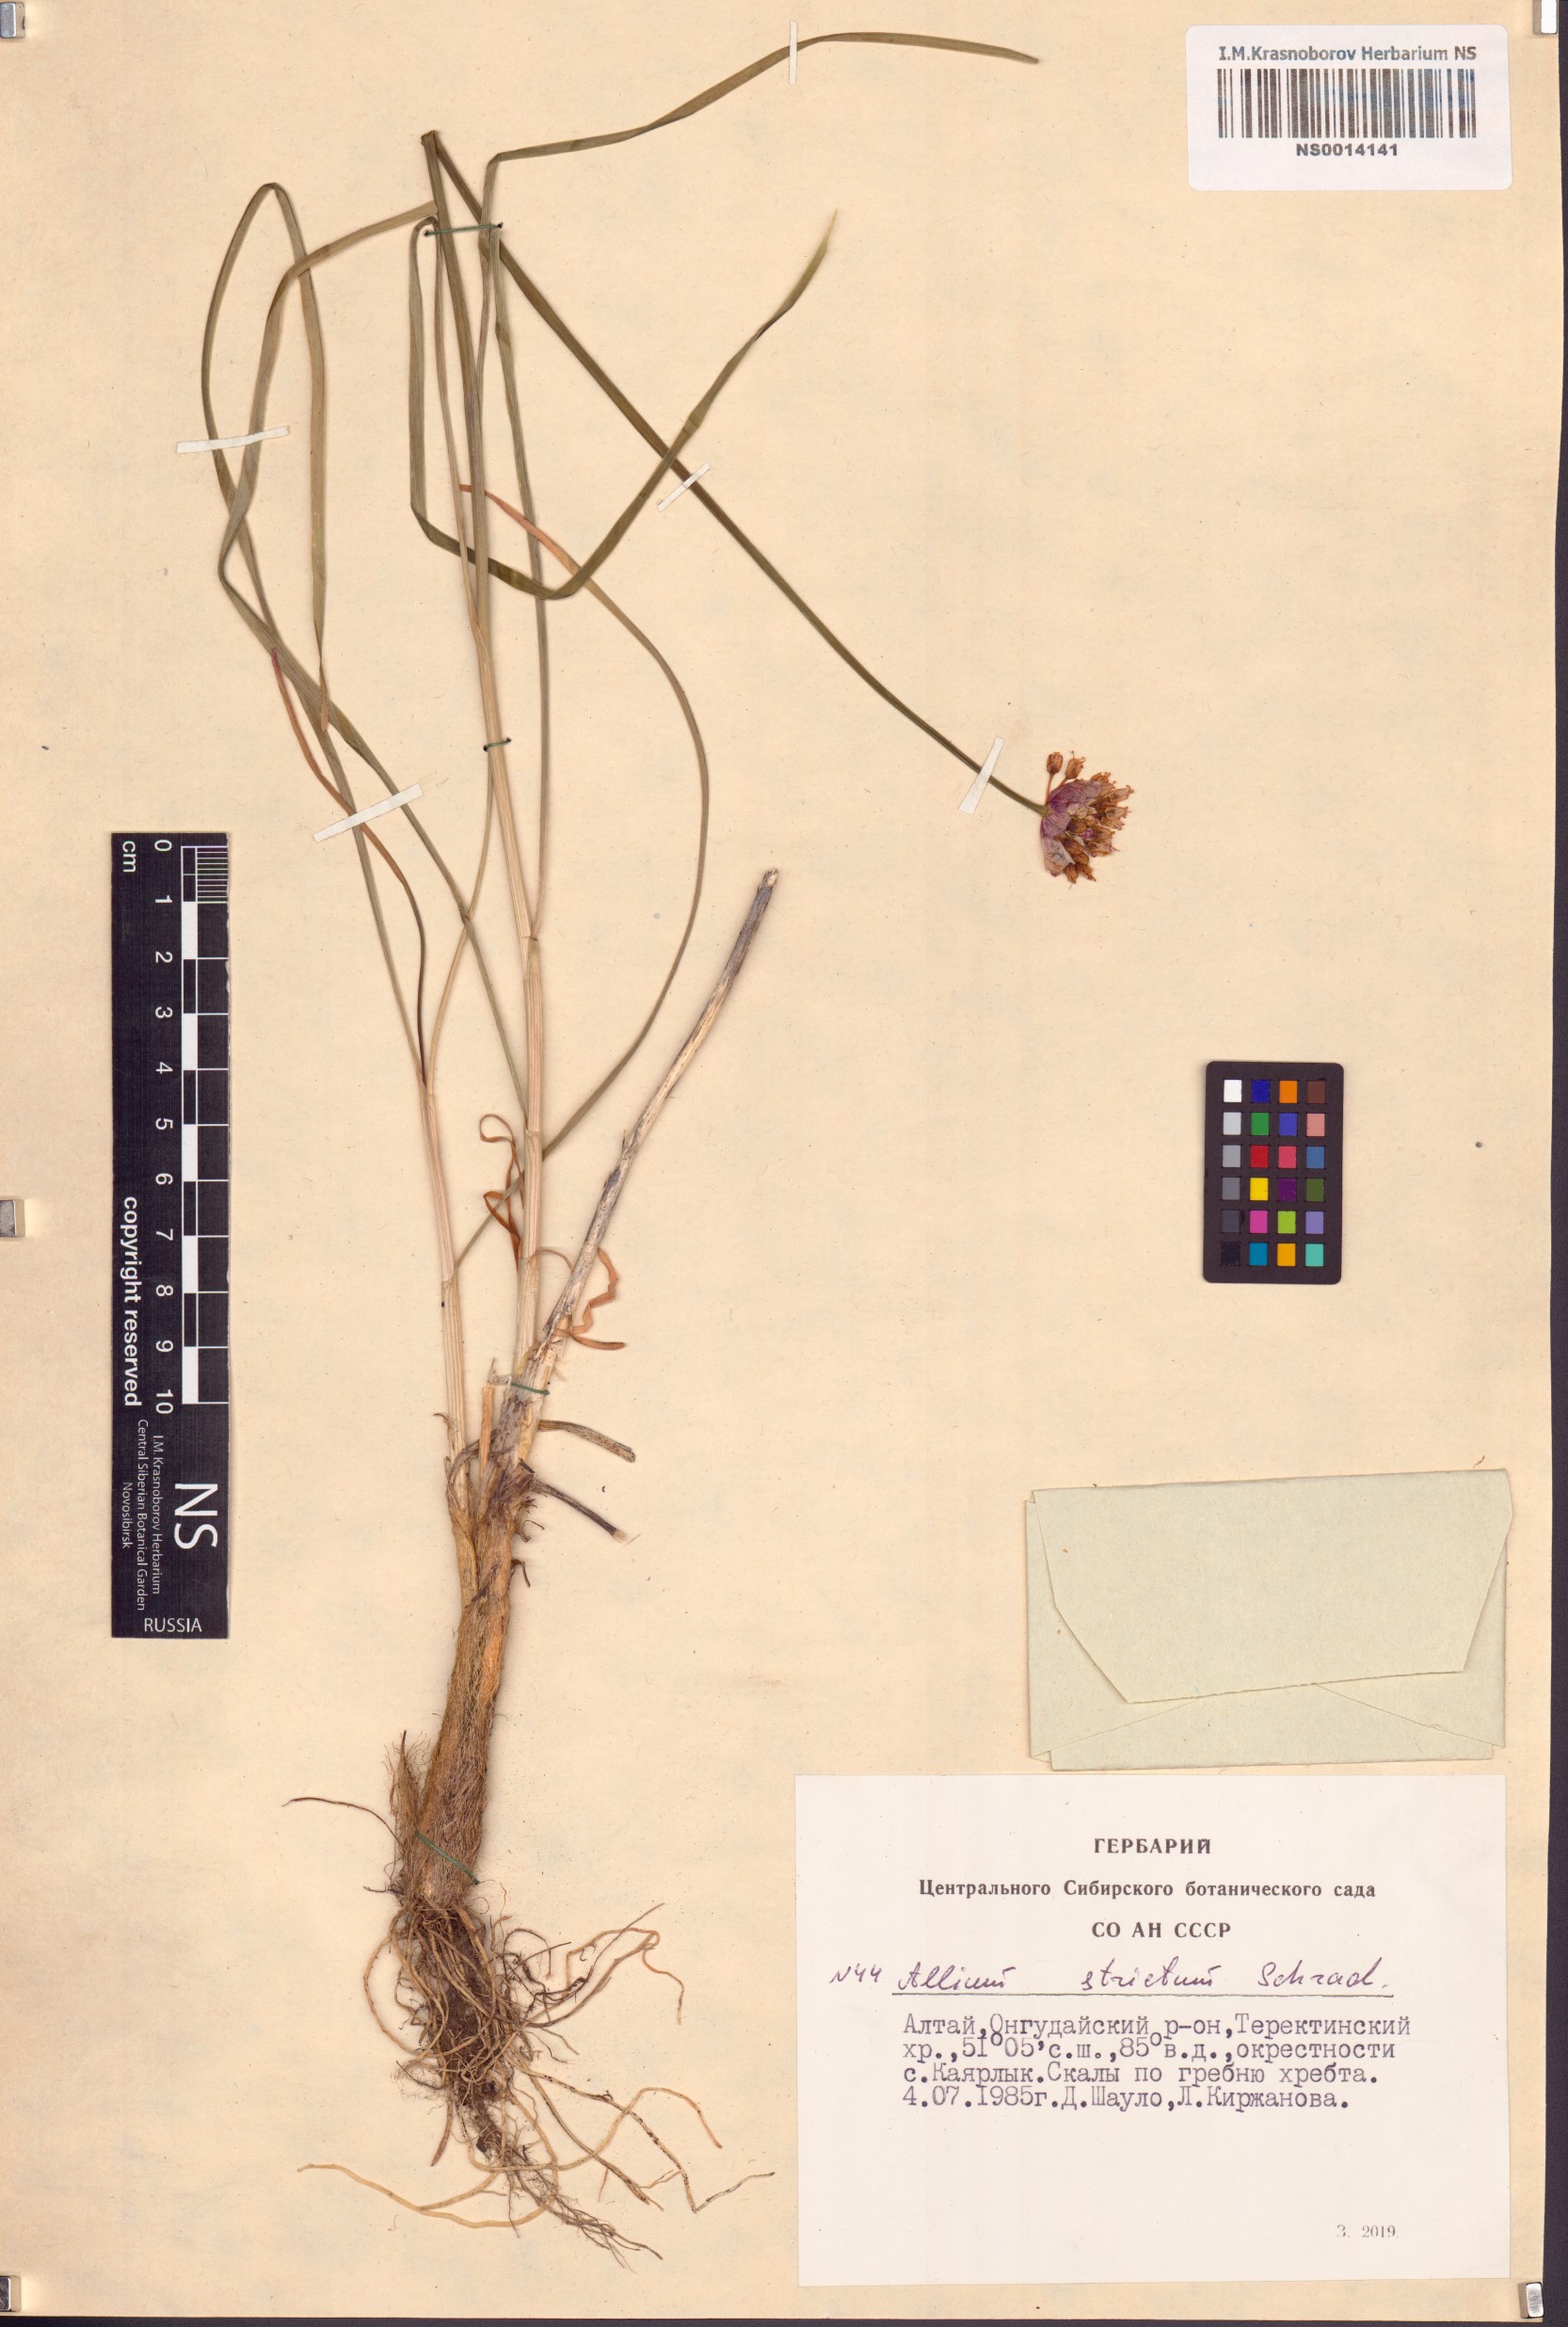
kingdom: Plantae
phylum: Tracheophyta
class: Liliopsida
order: Asparagales
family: Amaryllidaceae
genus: Allium
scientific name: Allium strictum
